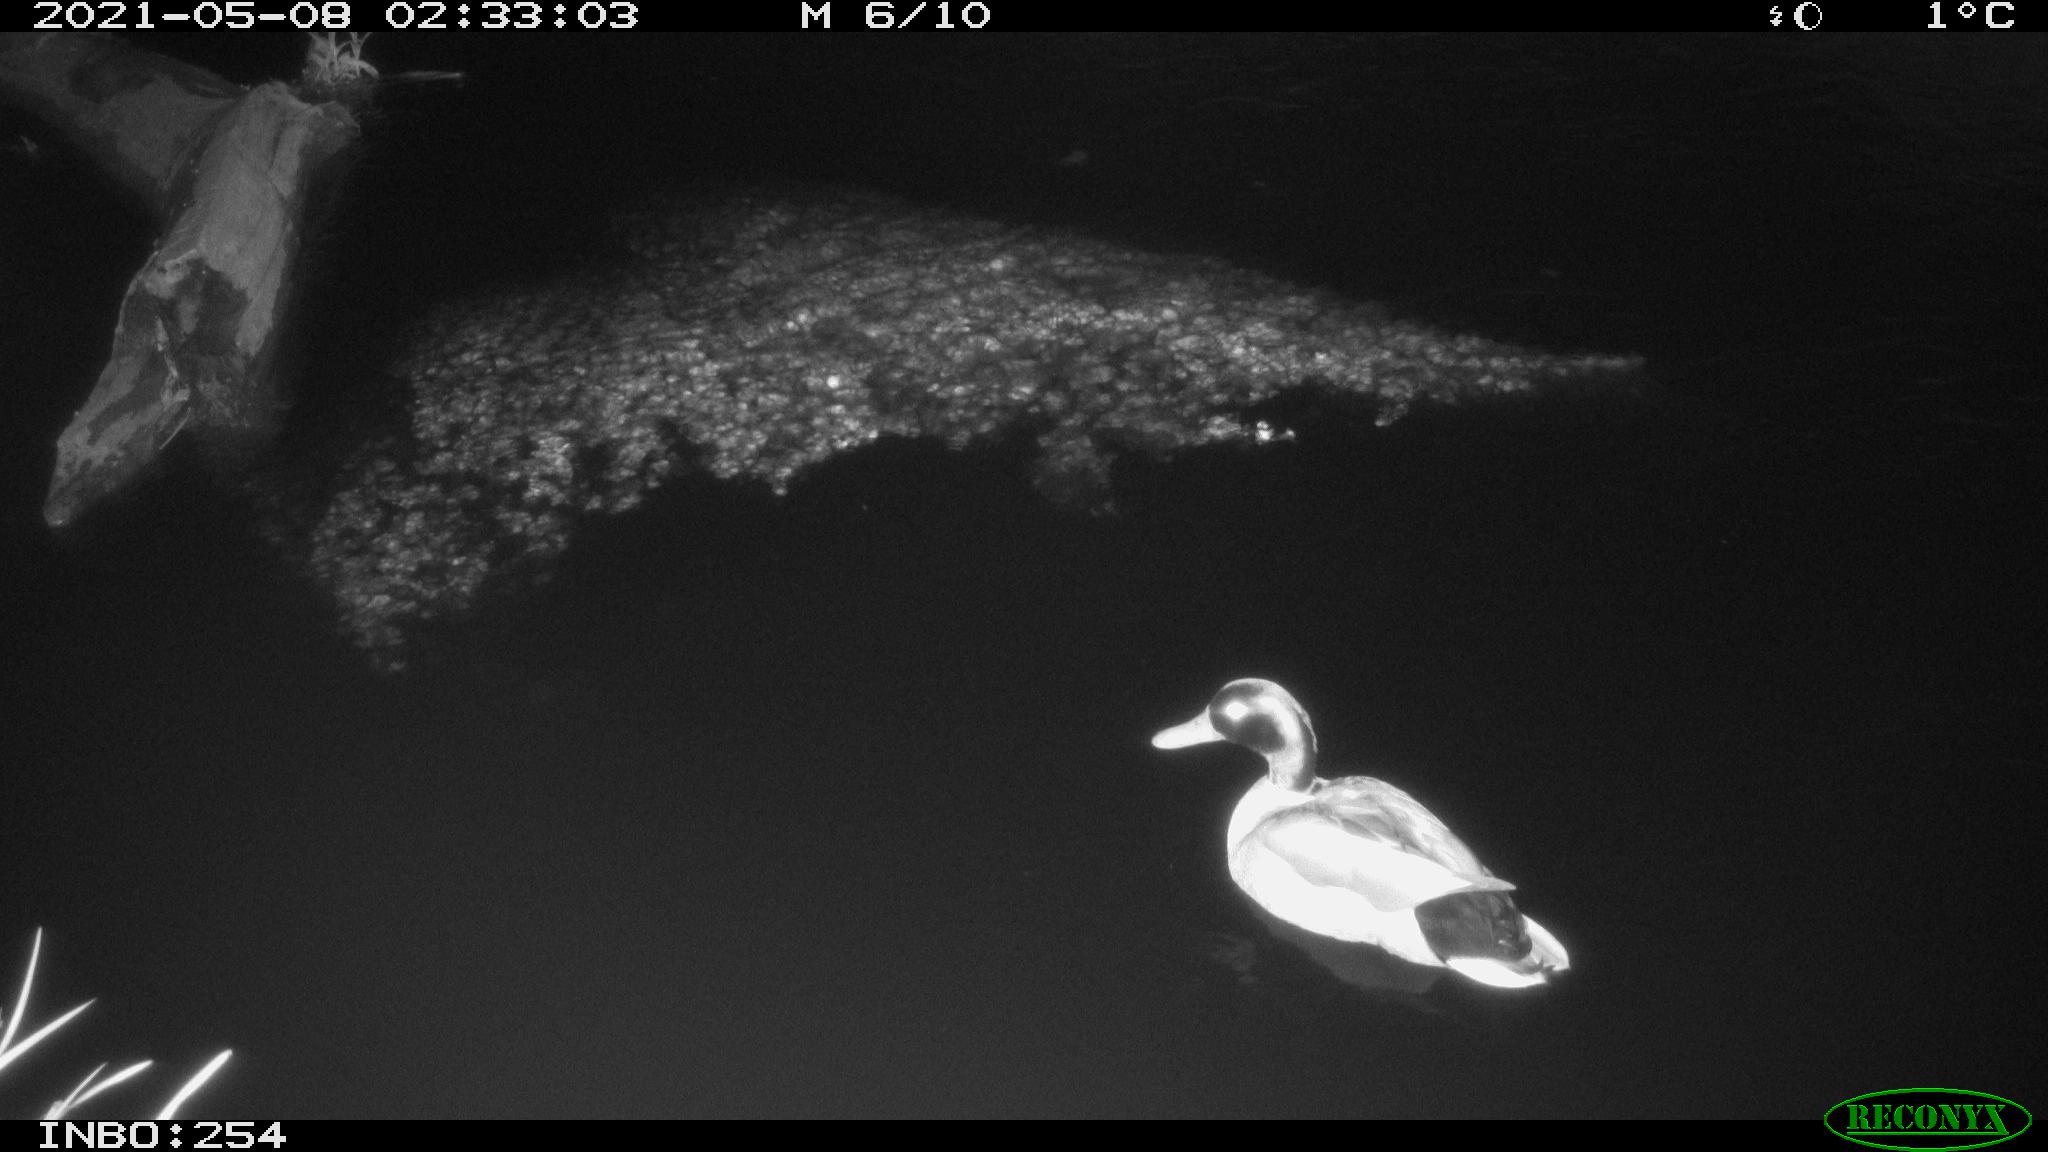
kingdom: Animalia
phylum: Chordata
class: Aves
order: Anseriformes
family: Anatidae
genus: Anas
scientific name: Anas
